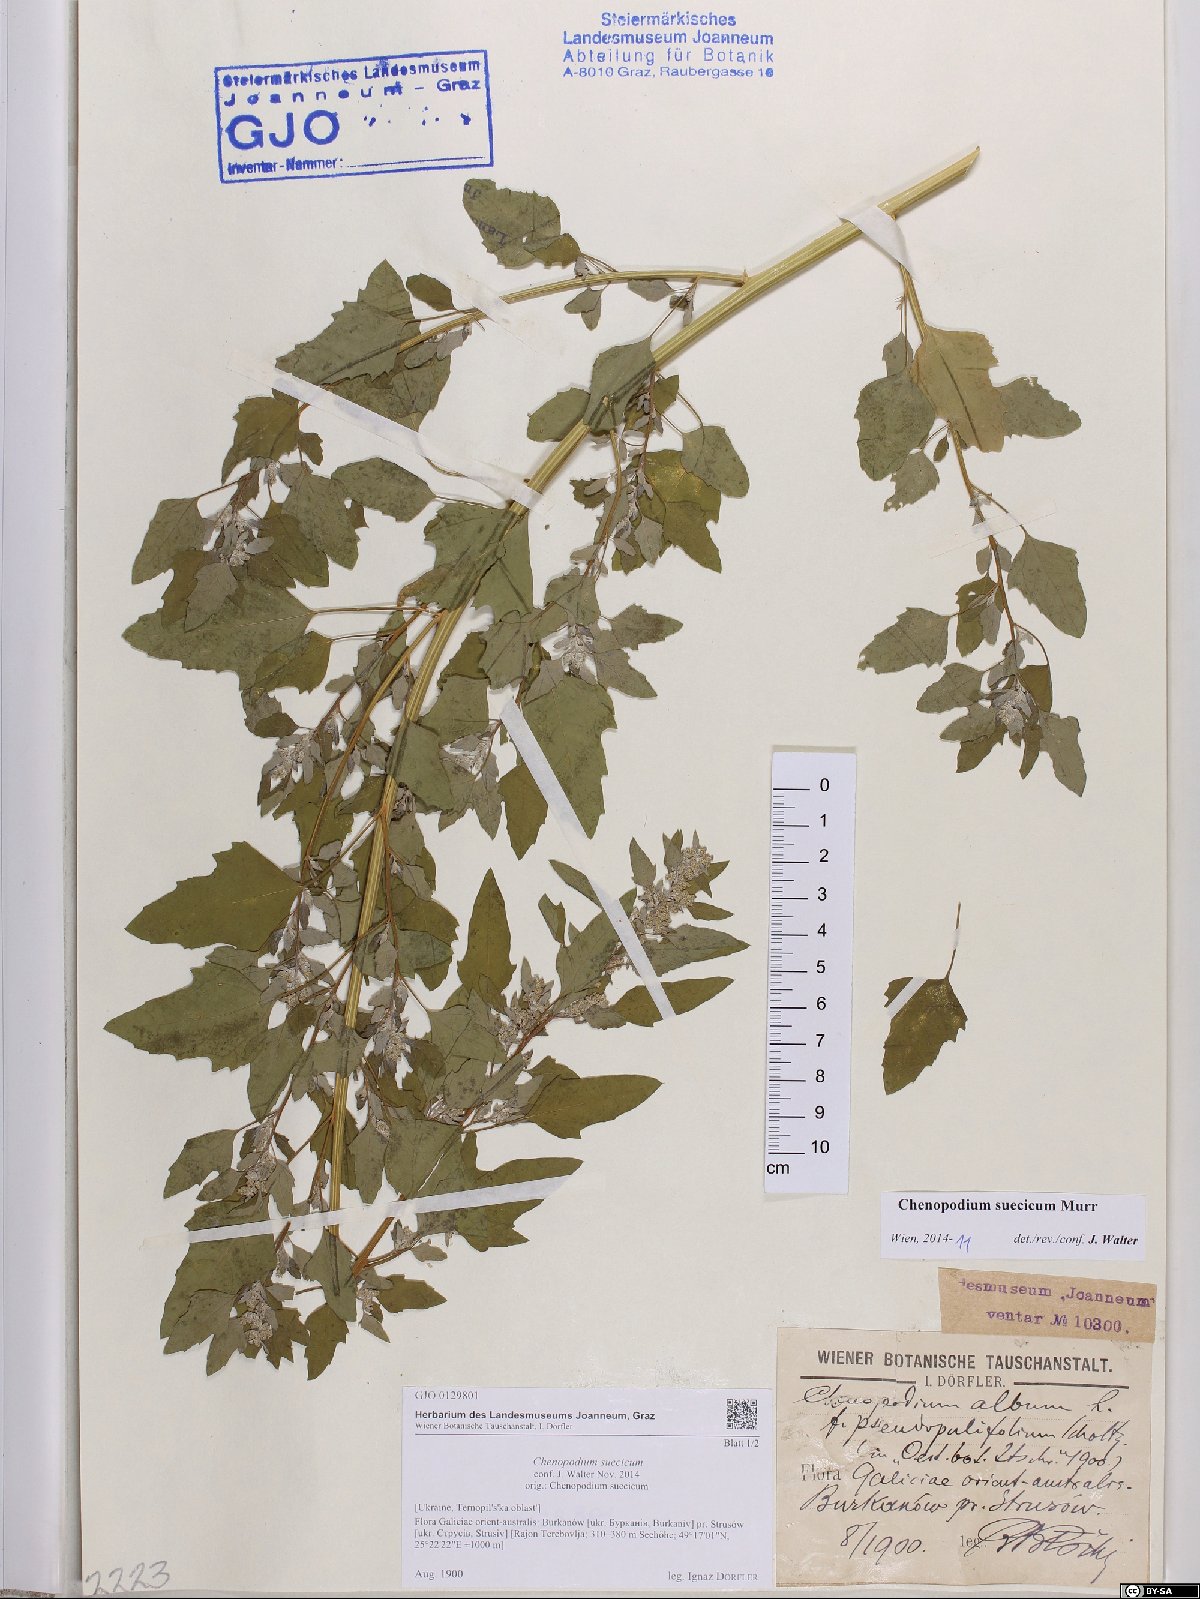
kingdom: Plantae
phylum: Tracheophyta
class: Magnoliopsida
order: Caryophyllales
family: Amaranthaceae
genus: Chenopodium
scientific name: Chenopodium suecicum
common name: Swedish goosefoot
